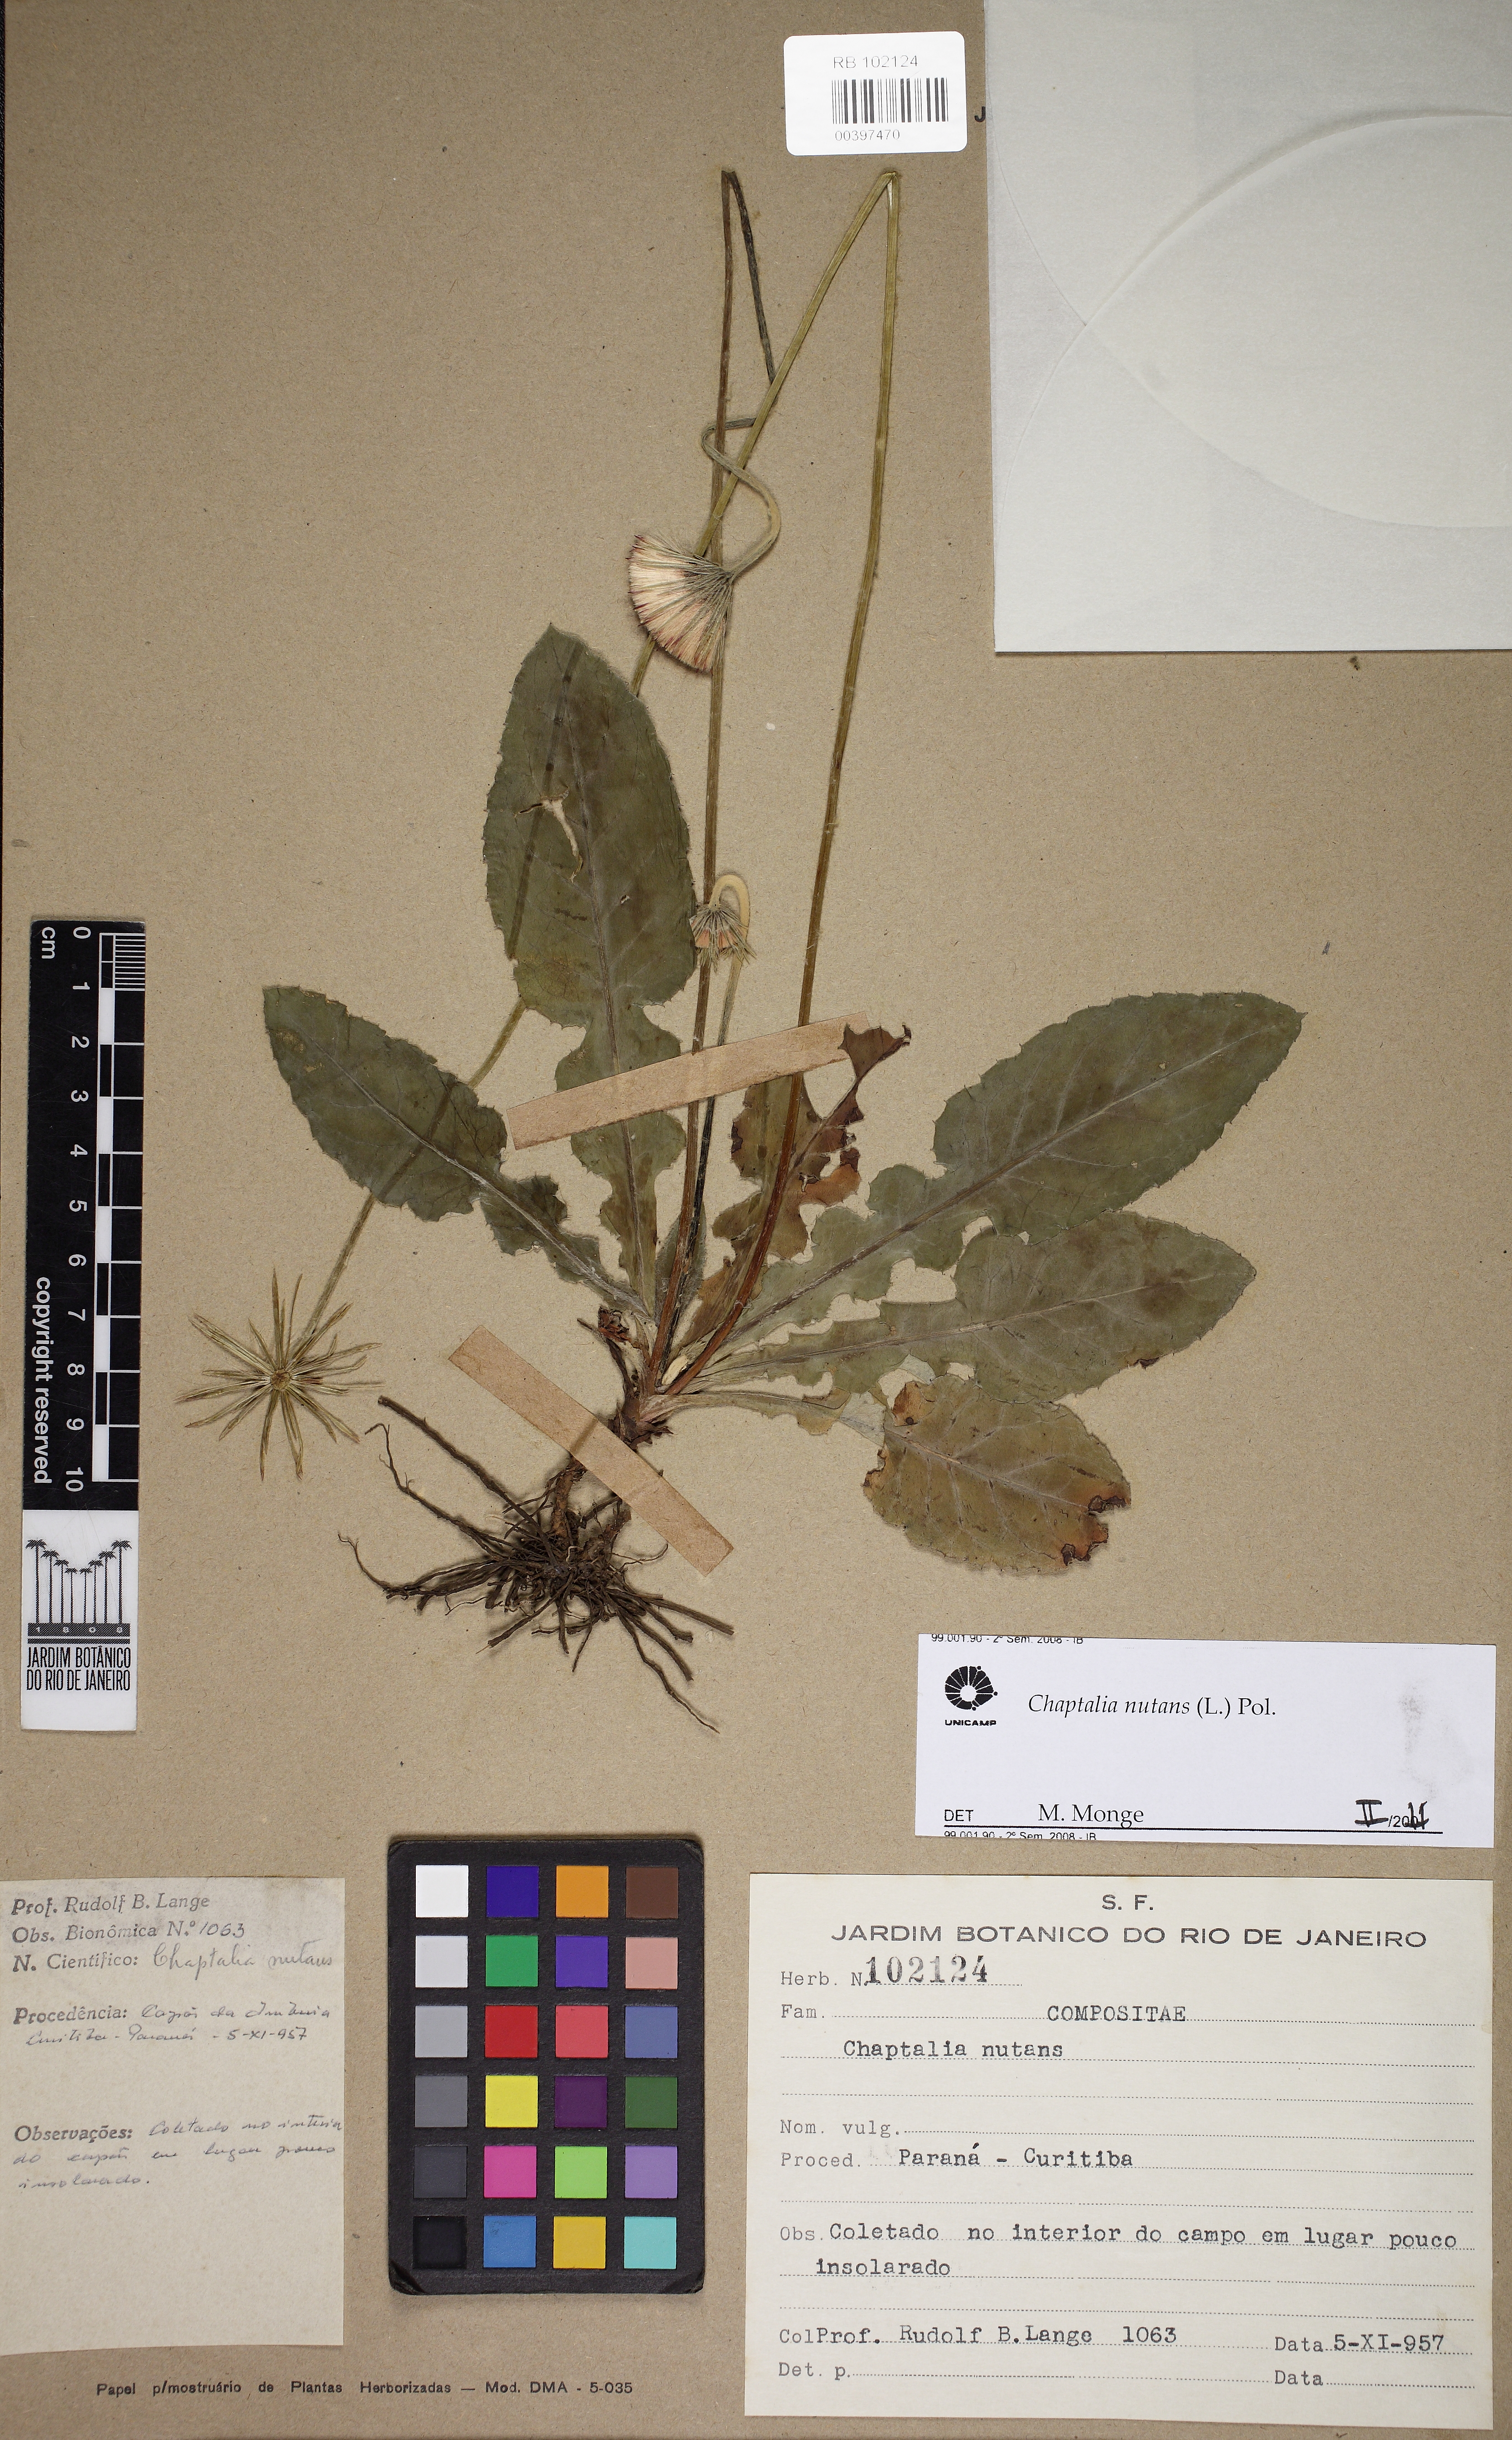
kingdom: Plantae
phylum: Tracheophyta
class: Magnoliopsida
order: Asterales
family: Asteraceae
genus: Chaptalia
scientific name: Chaptalia nutans
